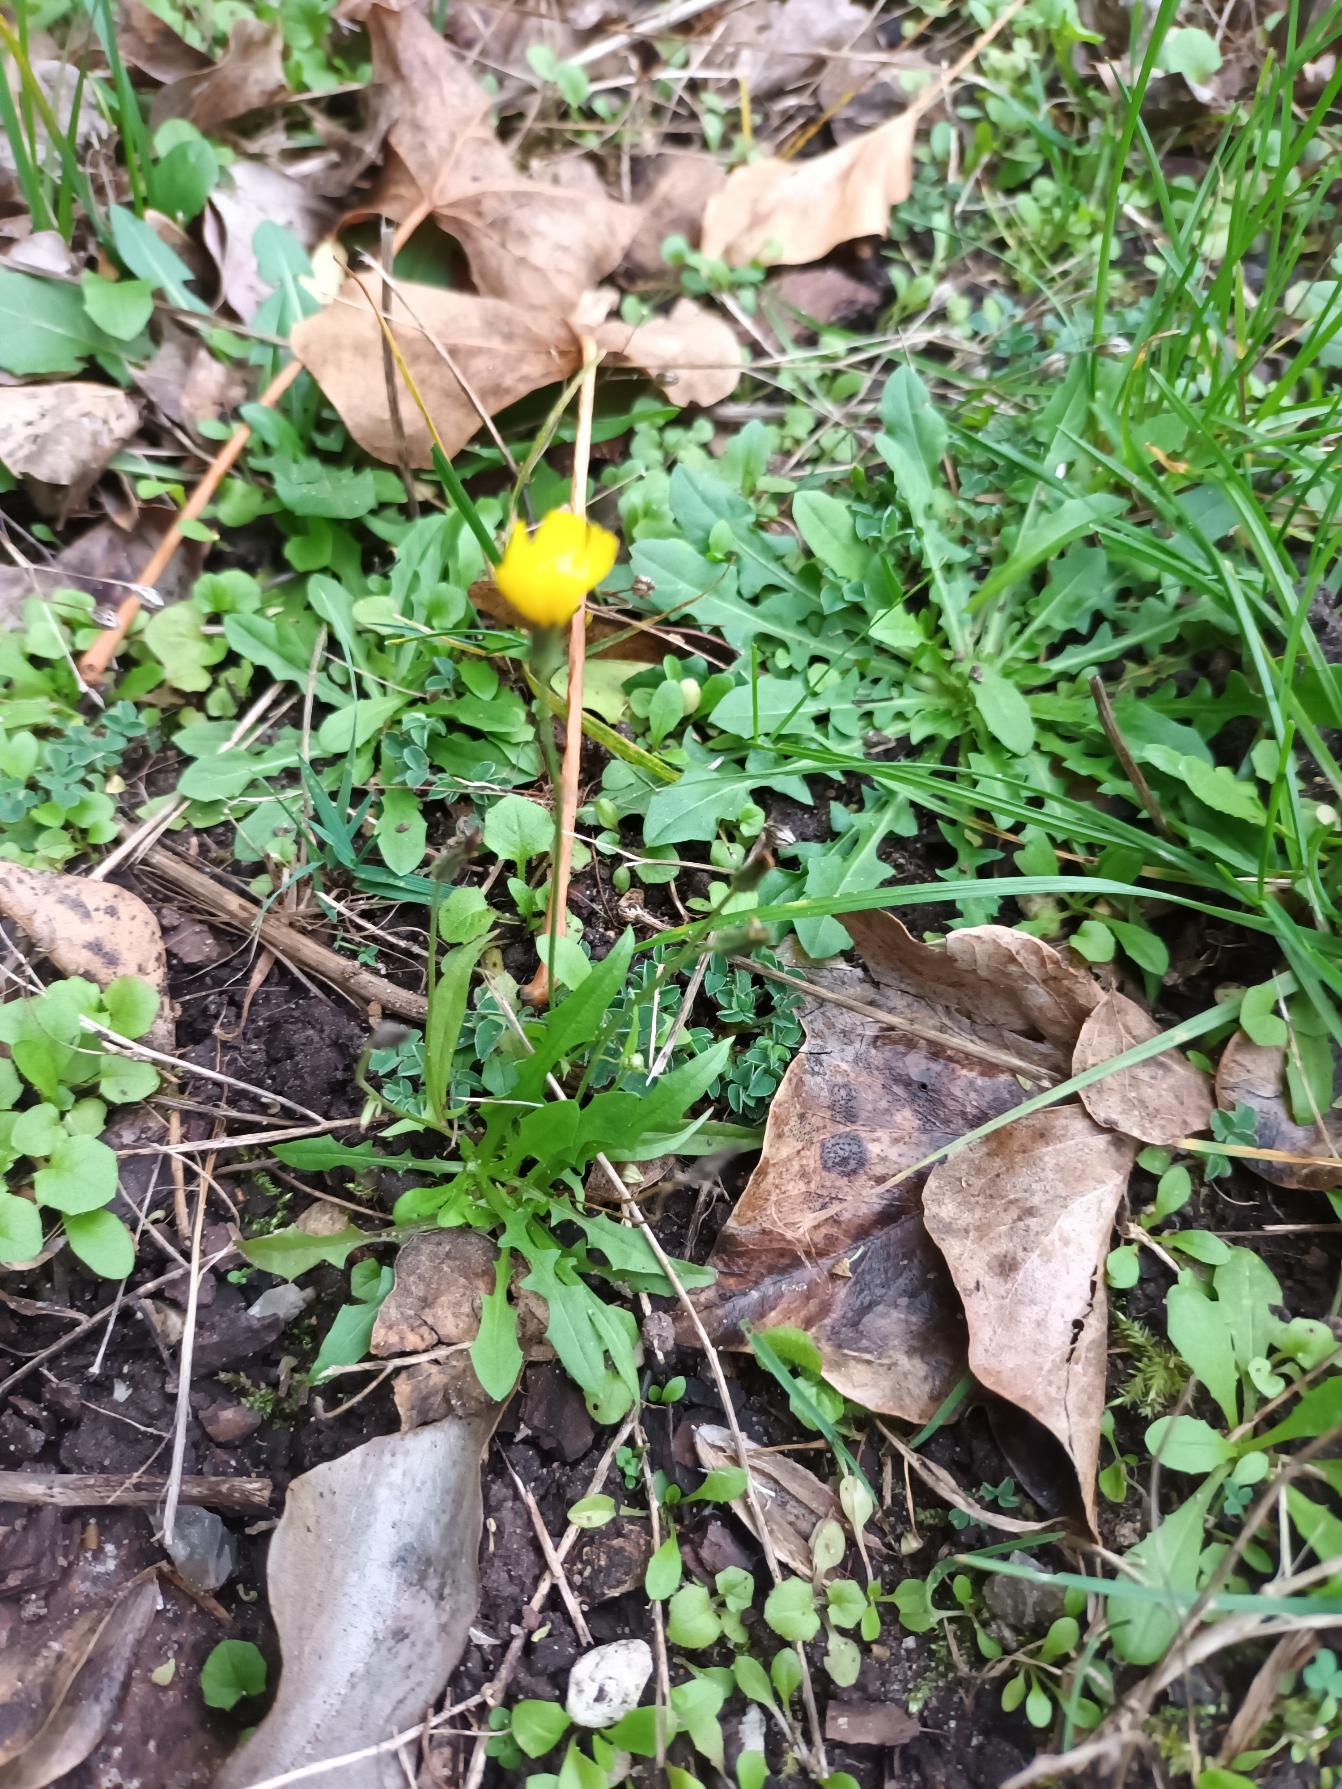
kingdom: Plantae
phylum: Tracheophyta
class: Magnoliopsida
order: Asterales
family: Asteraceae
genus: Crepis
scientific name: Crepis capillaris
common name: Grøn høgeskæg
